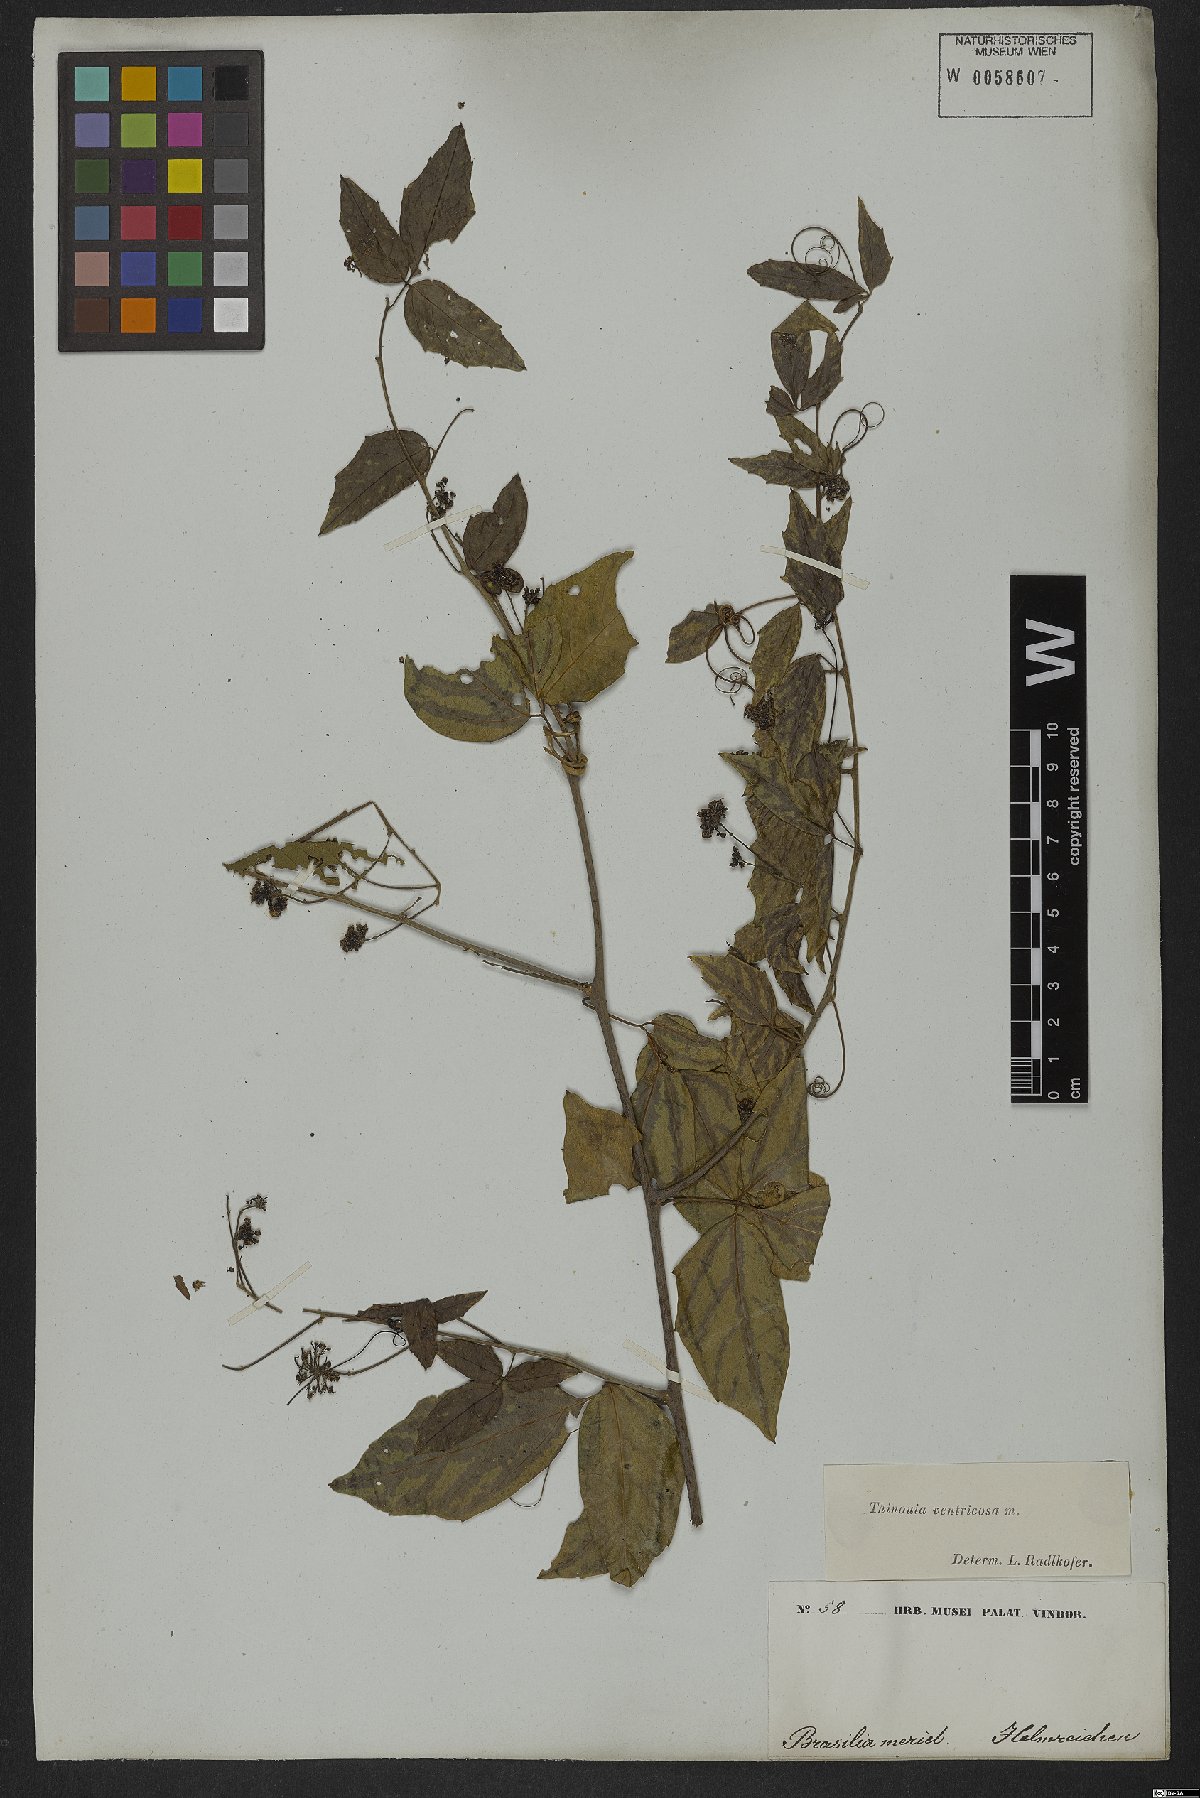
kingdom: Plantae
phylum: Tracheophyta
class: Magnoliopsida
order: Sapindales
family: Sapindaceae
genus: Thinouia
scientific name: Thinouia ventricosa
